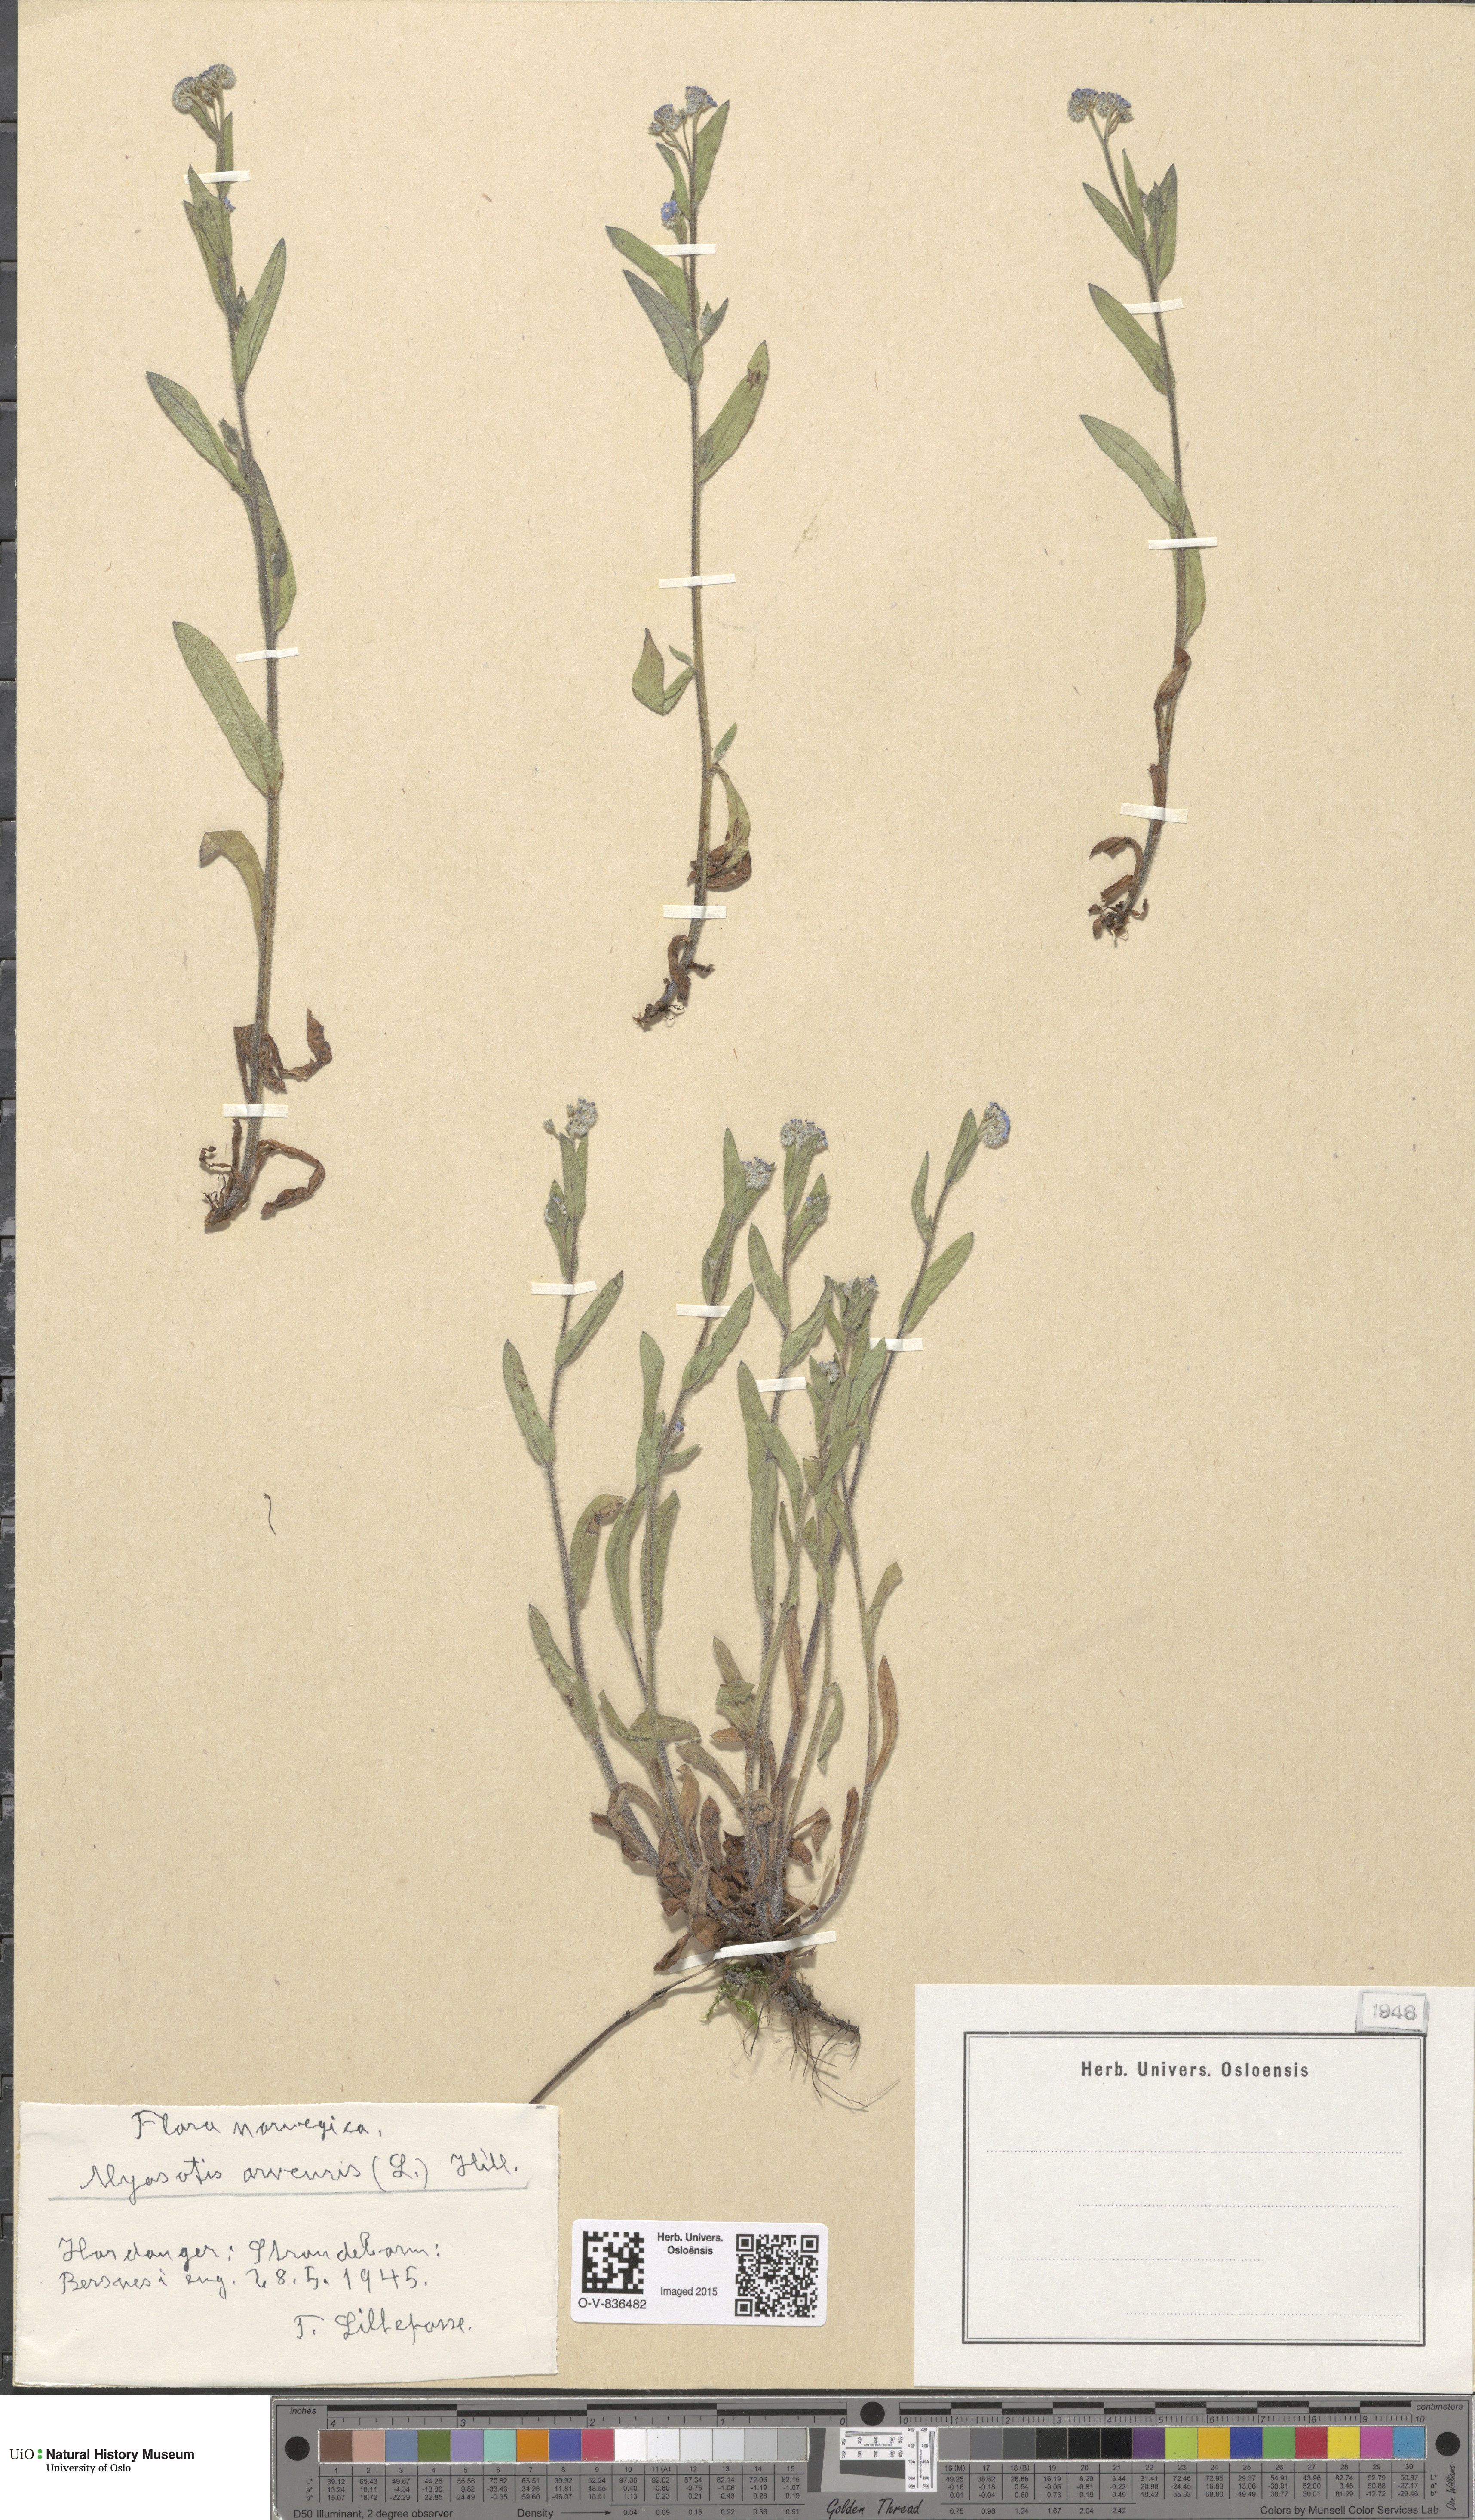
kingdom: Plantae
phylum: Tracheophyta
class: Magnoliopsida
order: Boraginales
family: Boraginaceae
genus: Myosotis
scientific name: Myosotis arvensis
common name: Field forget-me-not
